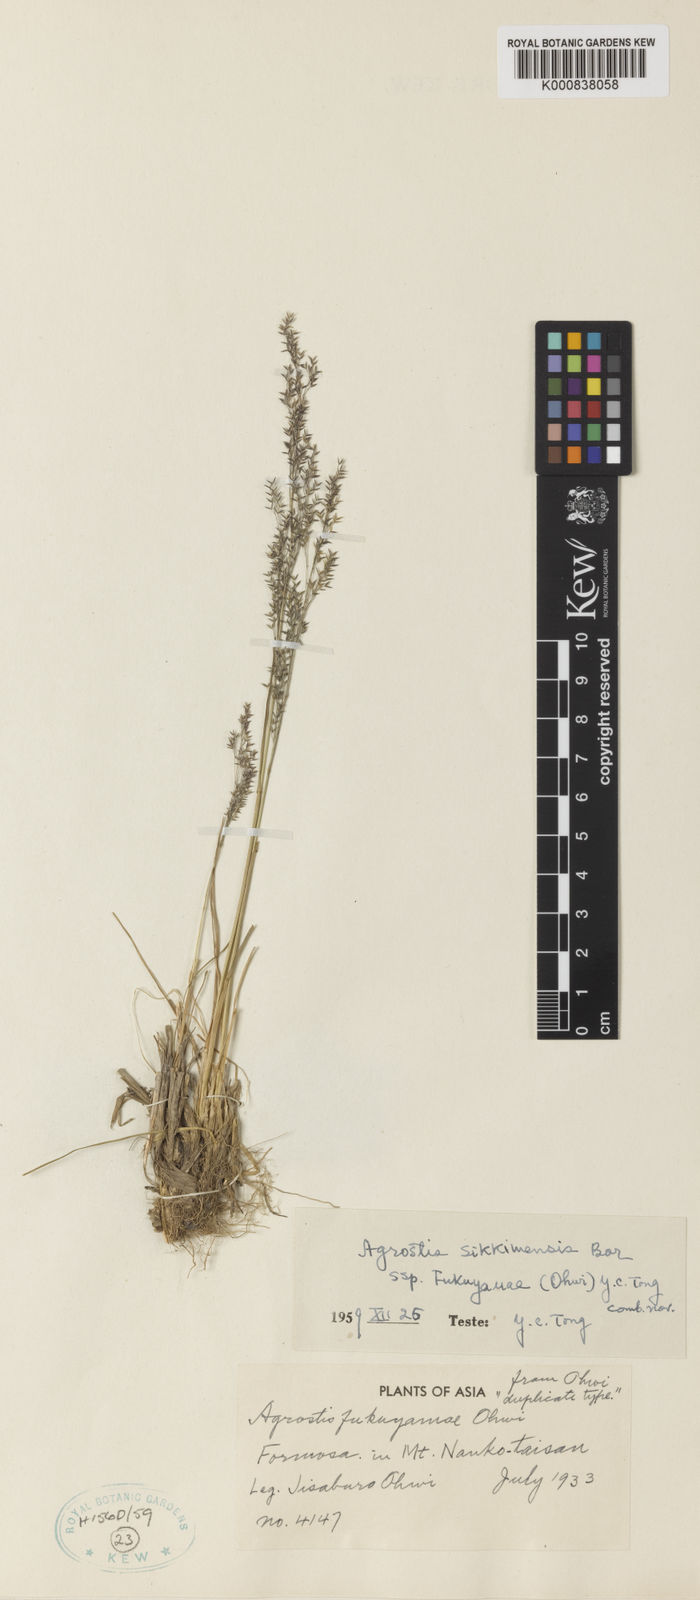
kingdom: Plantae
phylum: Tracheophyta
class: Liliopsida
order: Poales
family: Poaceae
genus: Agrostis
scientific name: Agrostis infirma
